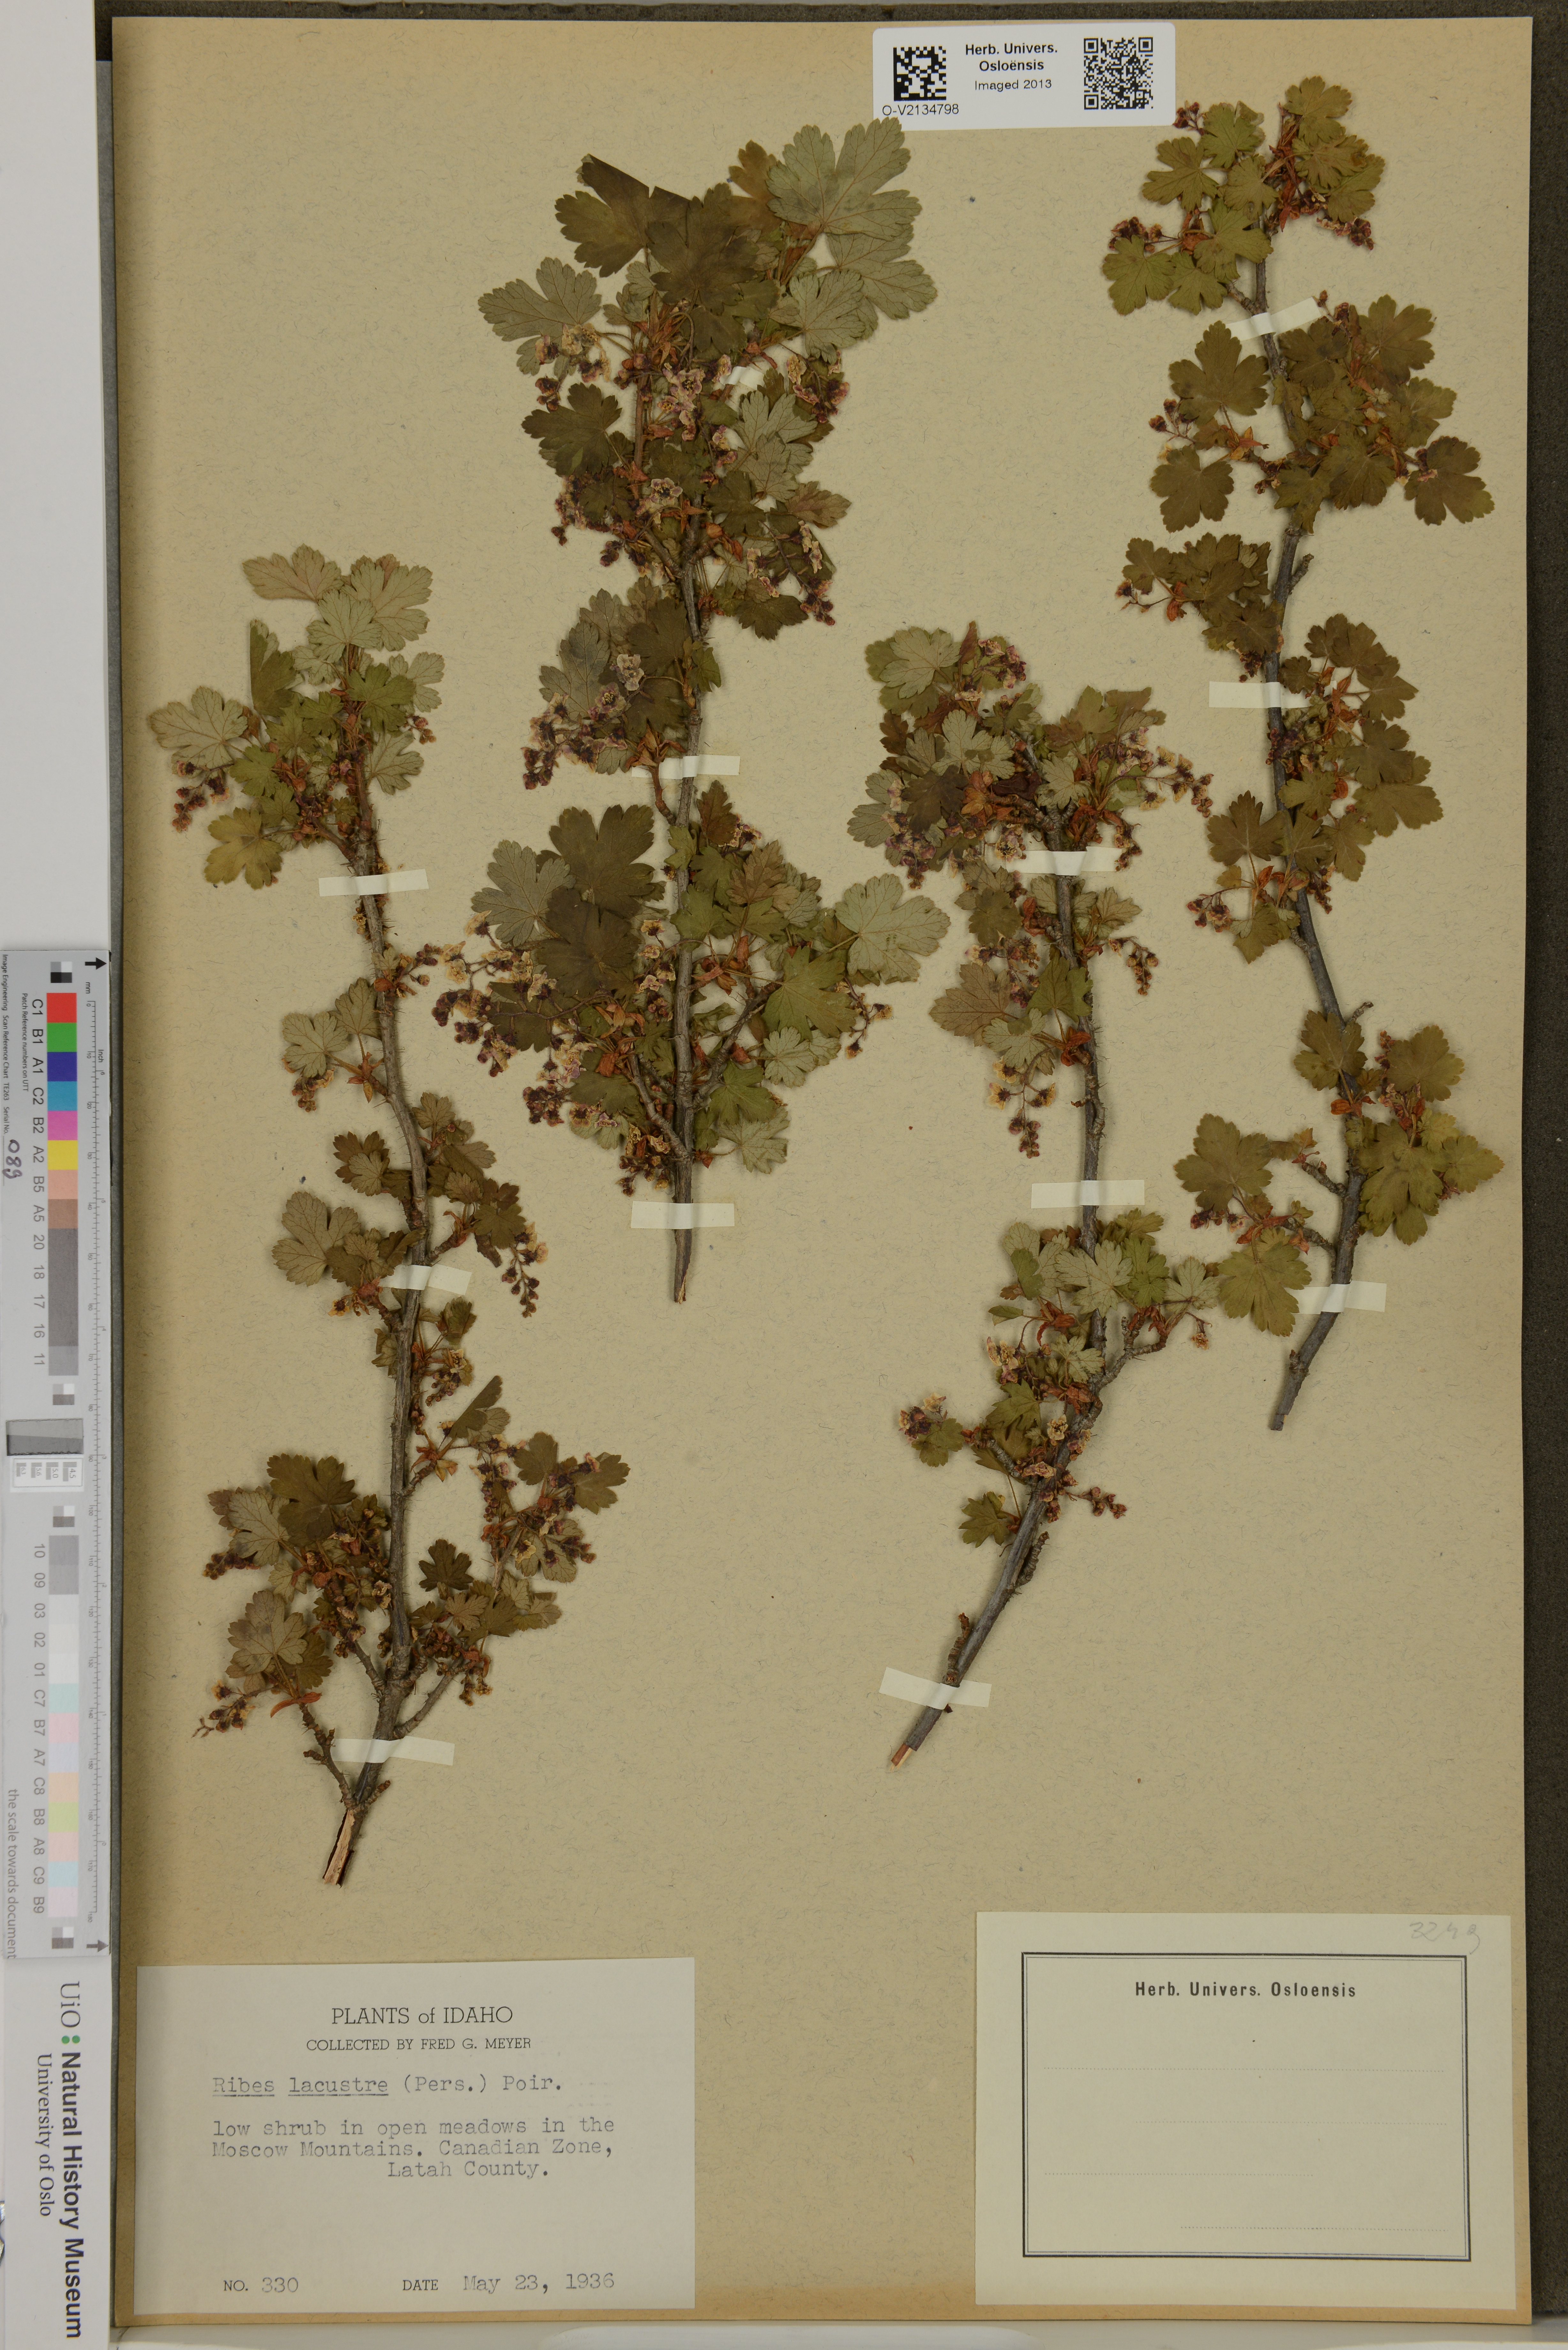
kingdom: Plantae
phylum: Tracheophyta
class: Magnoliopsida
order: Saxifragales
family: Grossulariaceae
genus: Ribes
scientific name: Ribes lacustre
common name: Black gooseberry
